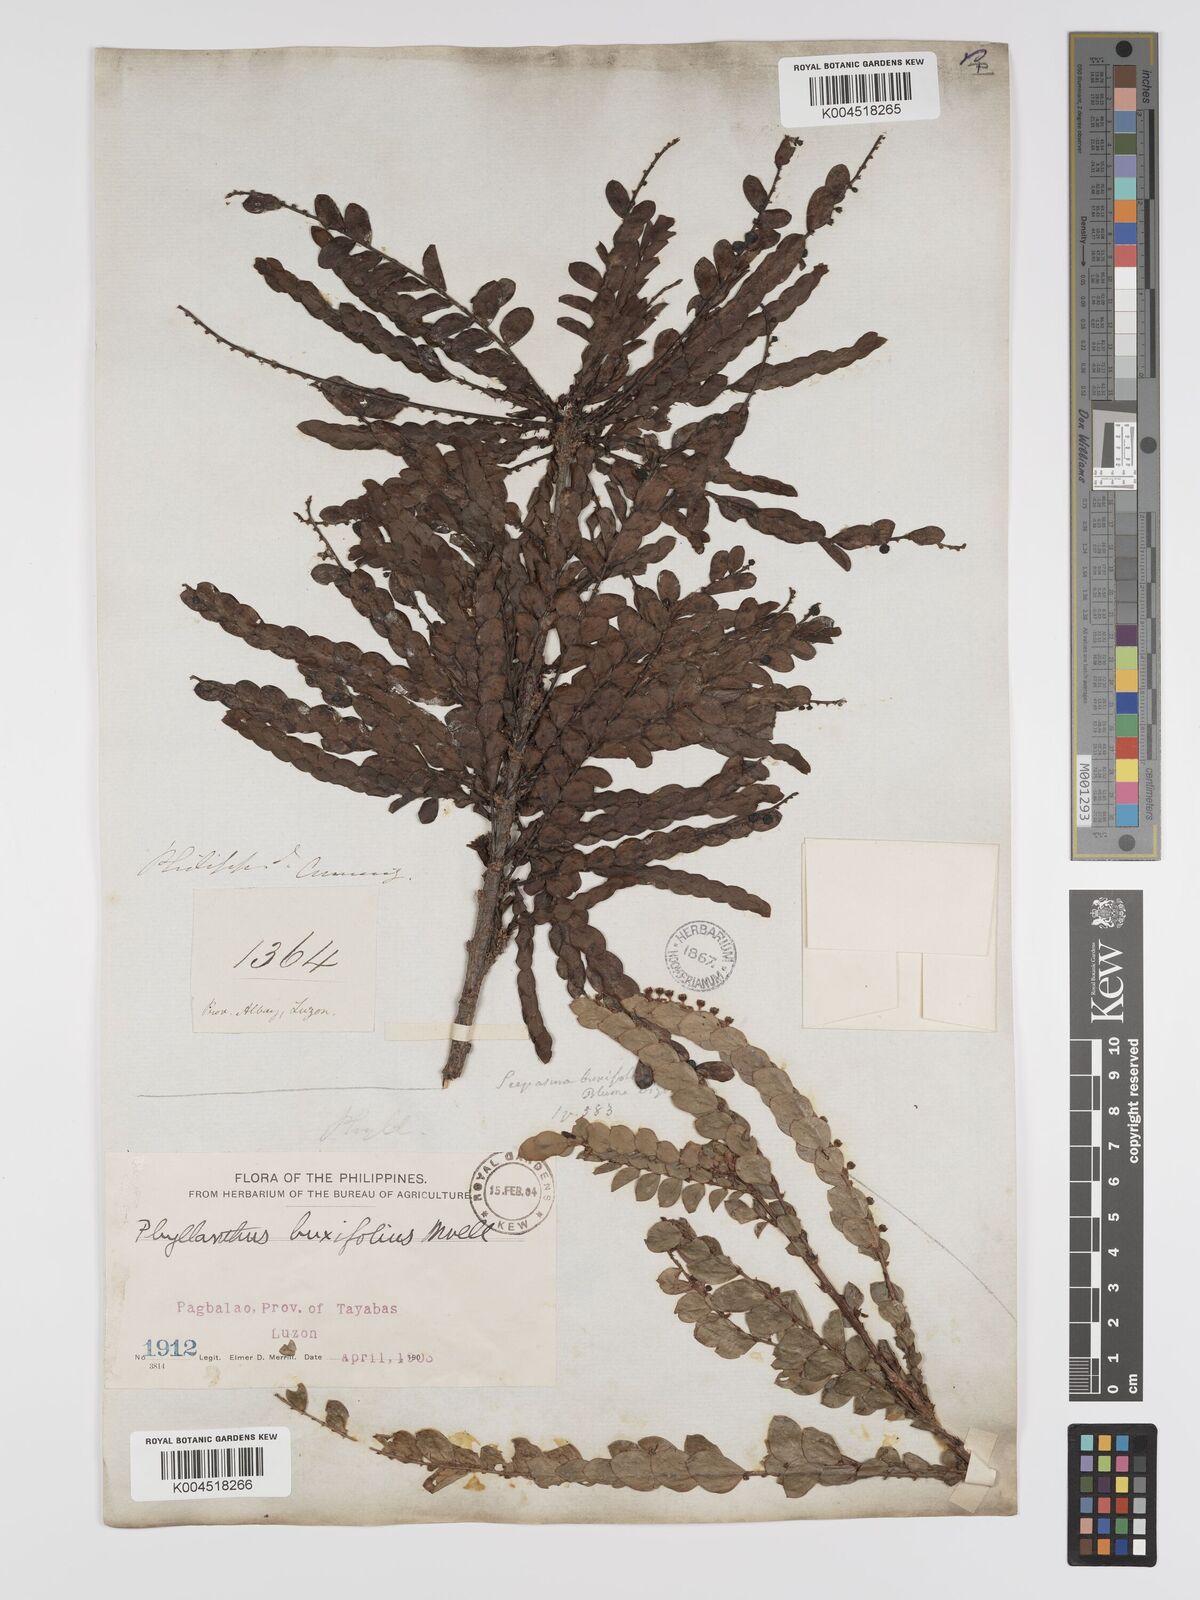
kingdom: Plantae
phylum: Tracheophyta
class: Magnoliopsida
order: Malpighiales
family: Phyllanthaceae
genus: Phyllanthus
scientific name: Phyllanthus buxifolius
